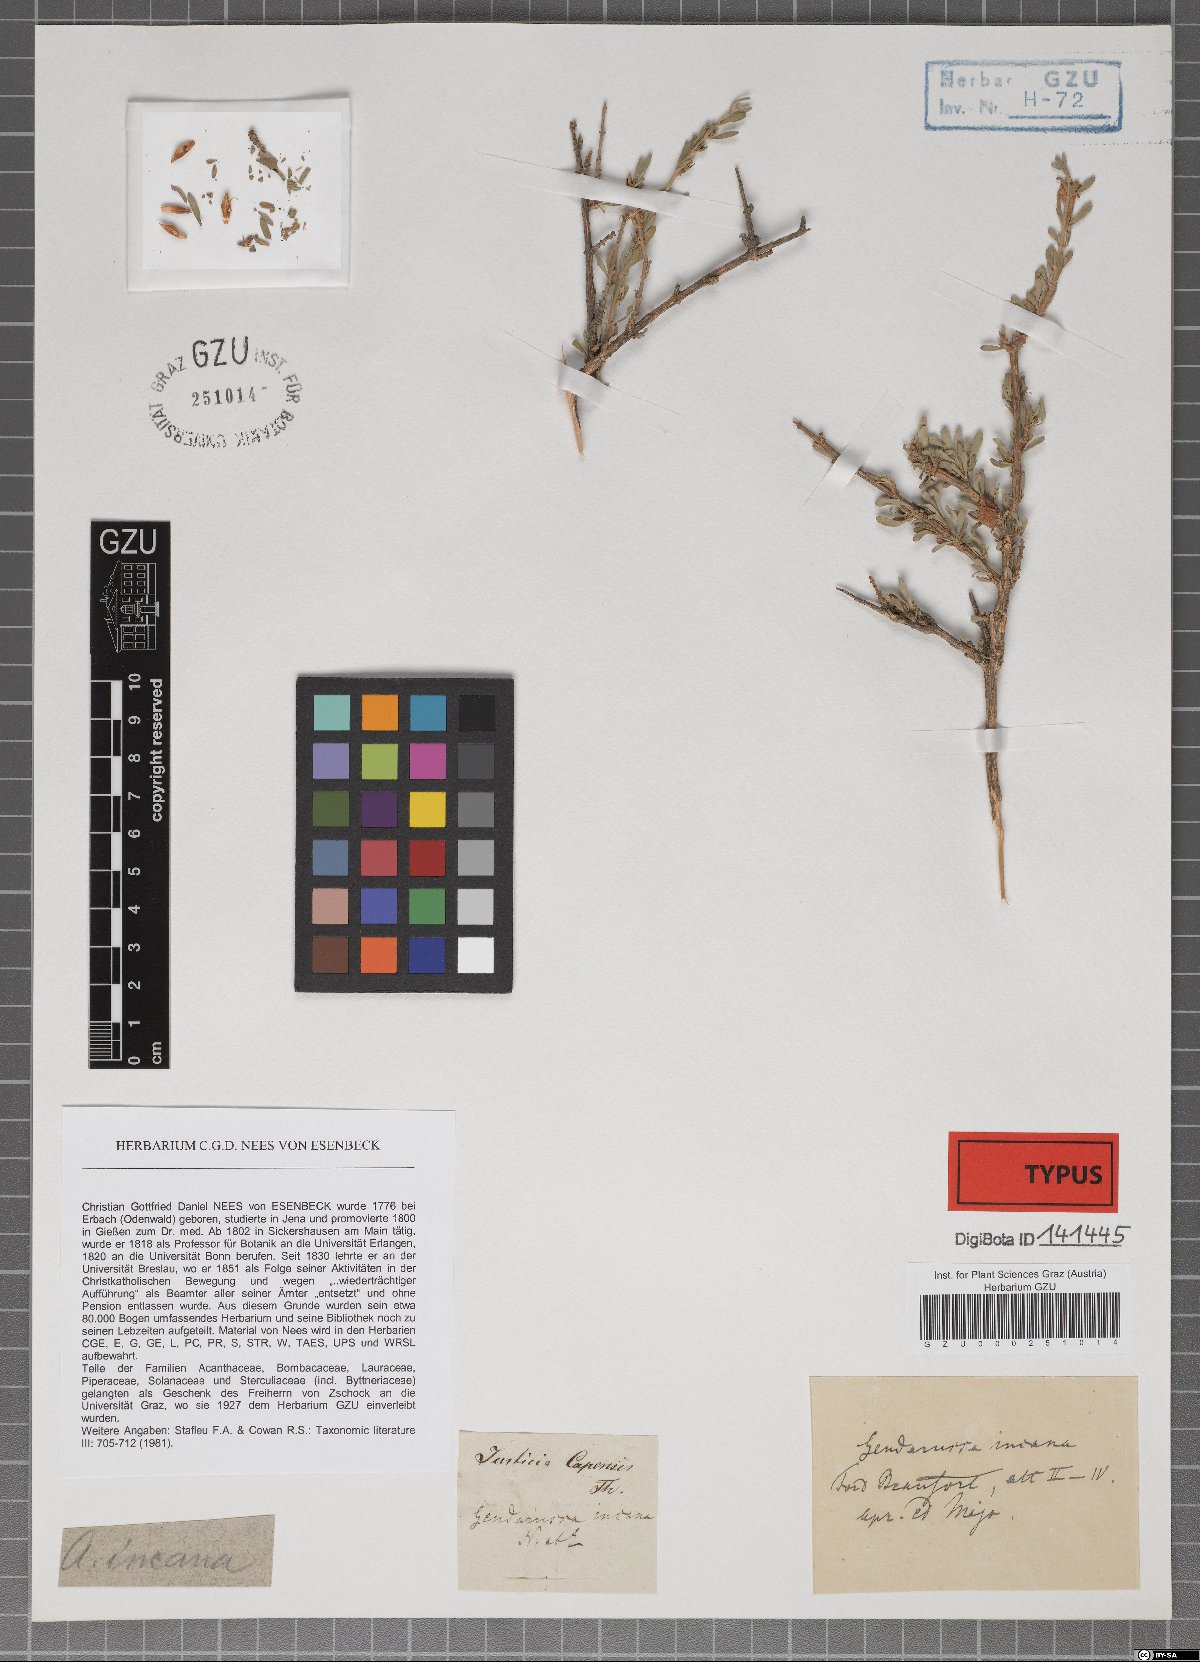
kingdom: Plantae
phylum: Tracheophyta
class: Magnoliopsida
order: Lamiales
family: Acanthaceae
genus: Monechma
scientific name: Monechma incanum
